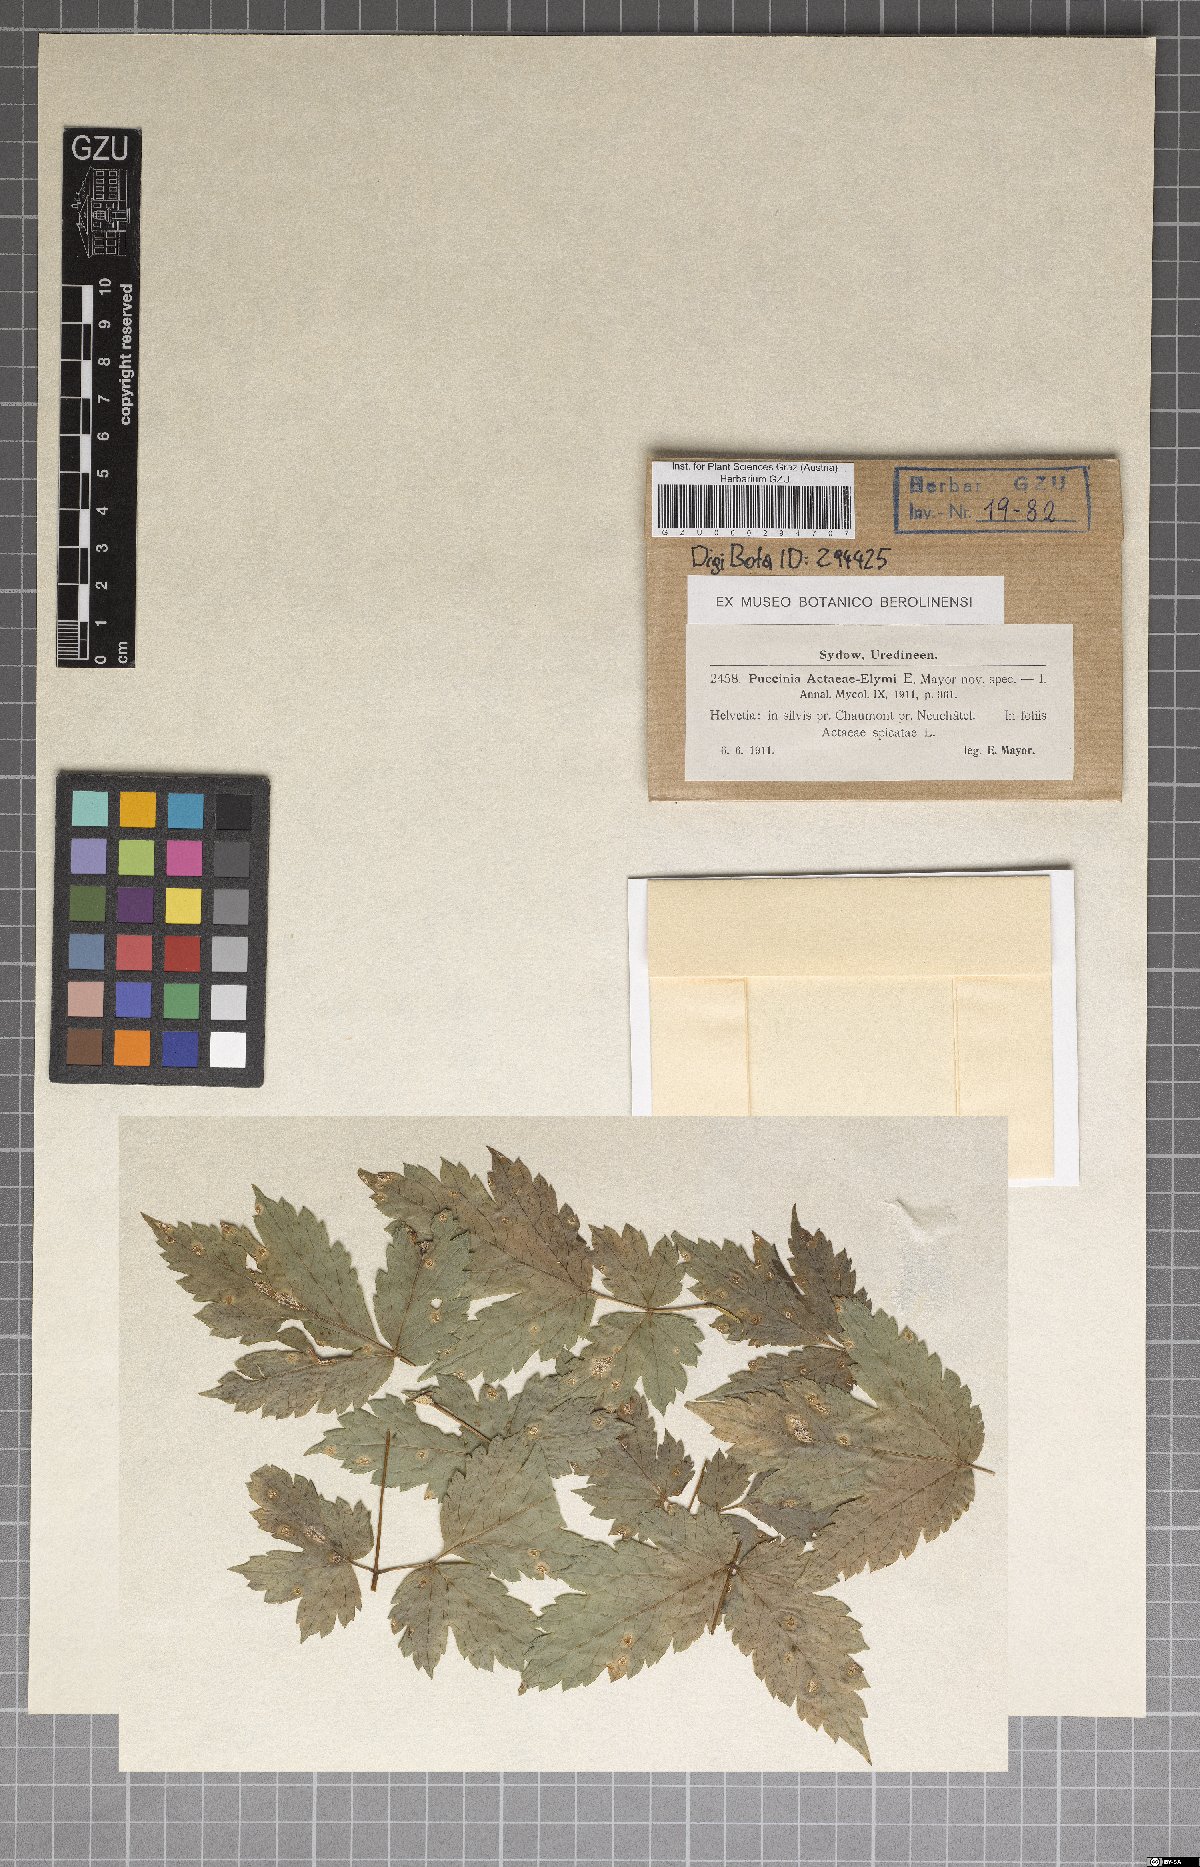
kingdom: Fungi
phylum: Basidiomycota
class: Pucciniomycetes
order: Pucciniales
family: Pucciniaceae
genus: Puccinia
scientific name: Puccinia actaeae-elymi
